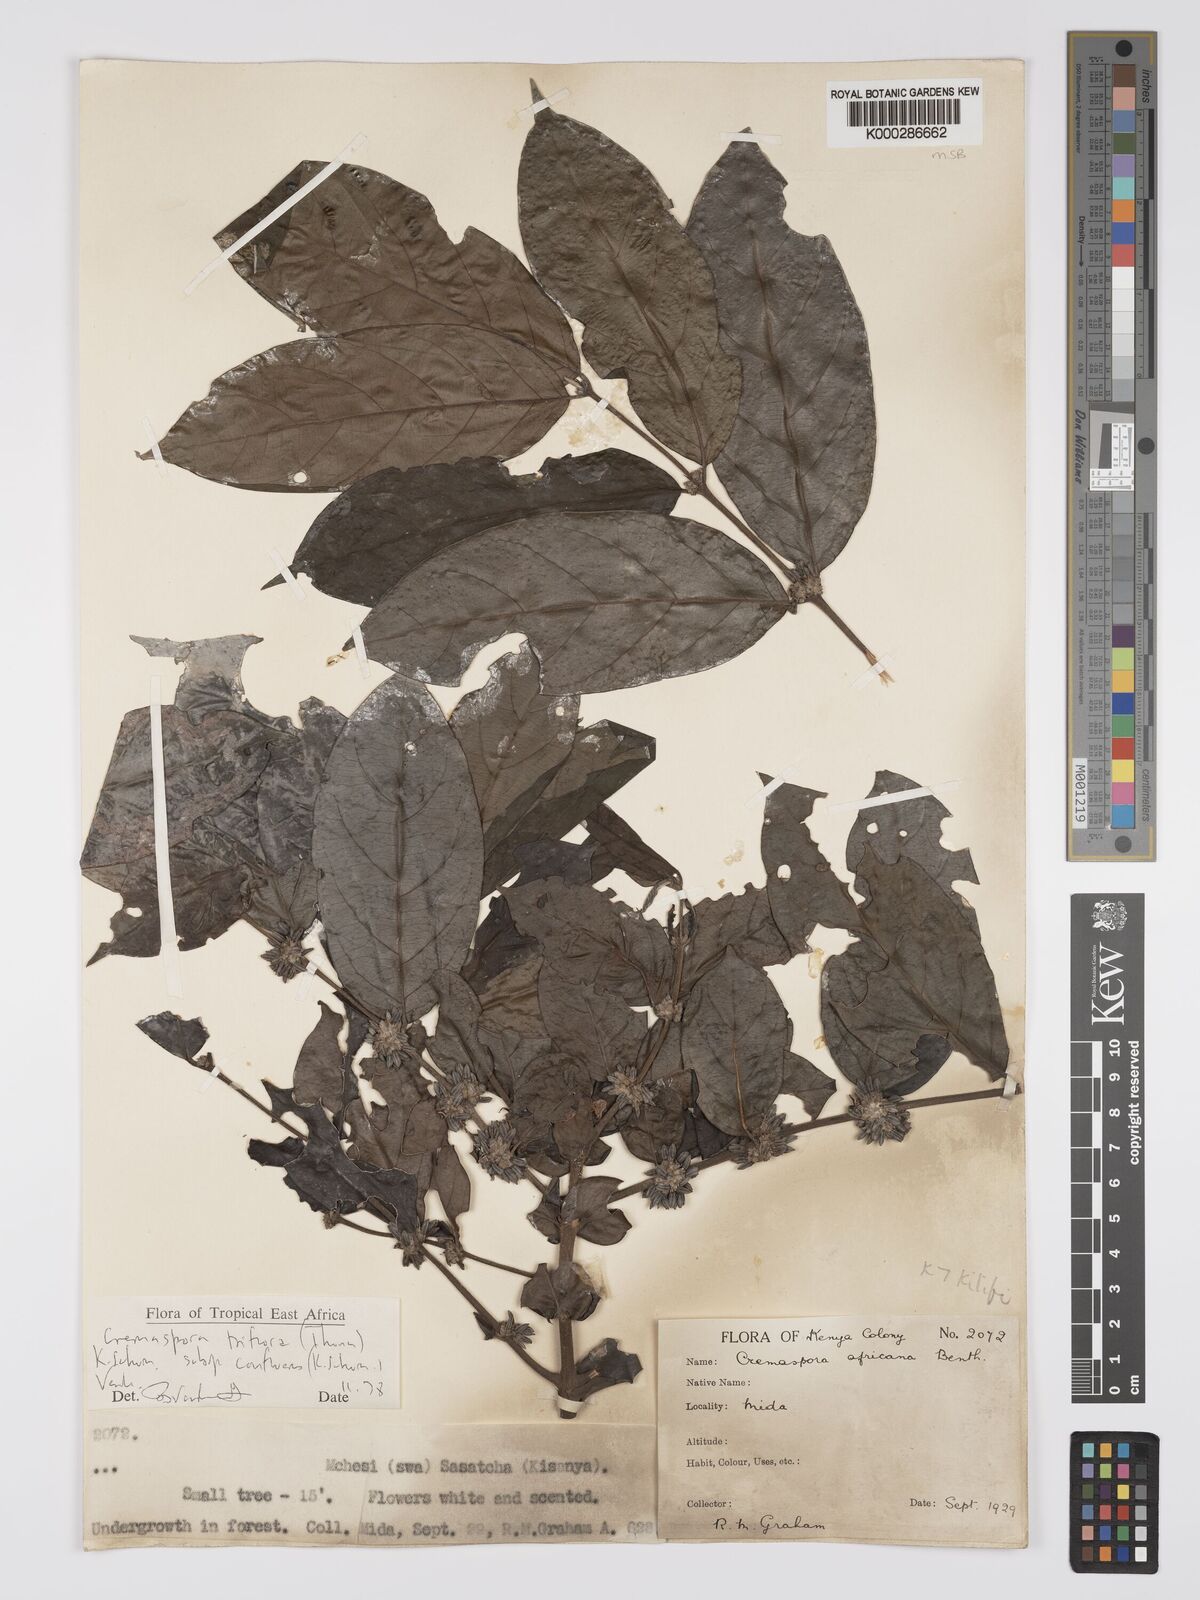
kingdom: Plantae
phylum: Tracheophyta
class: Magnoliopsida
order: Gentianales
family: Rubiaceae
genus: Cremaspora
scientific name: Cremaspora triflora
